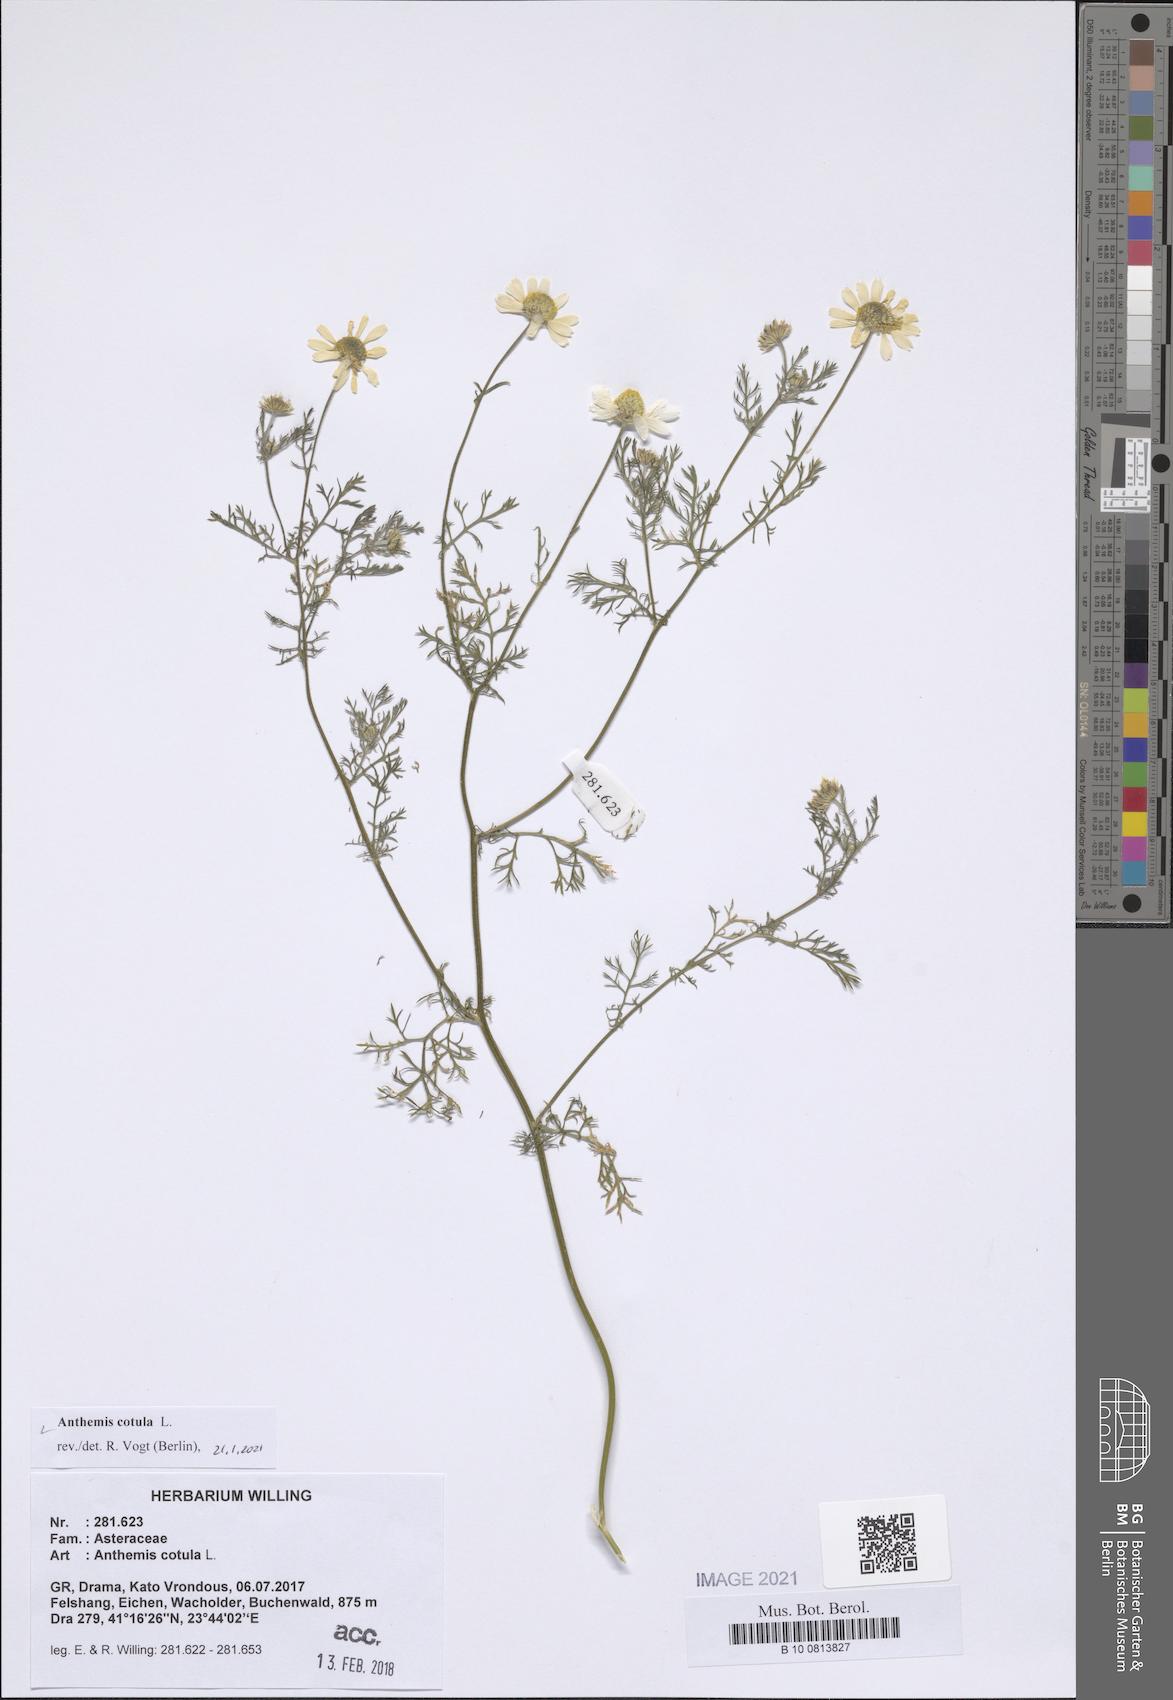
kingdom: Plantae
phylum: Tracheophyta
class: Magnoliopsida
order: Asterales
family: Asteraceae
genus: Anthemis
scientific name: Anthemis cotula
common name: Stinking chamomile
